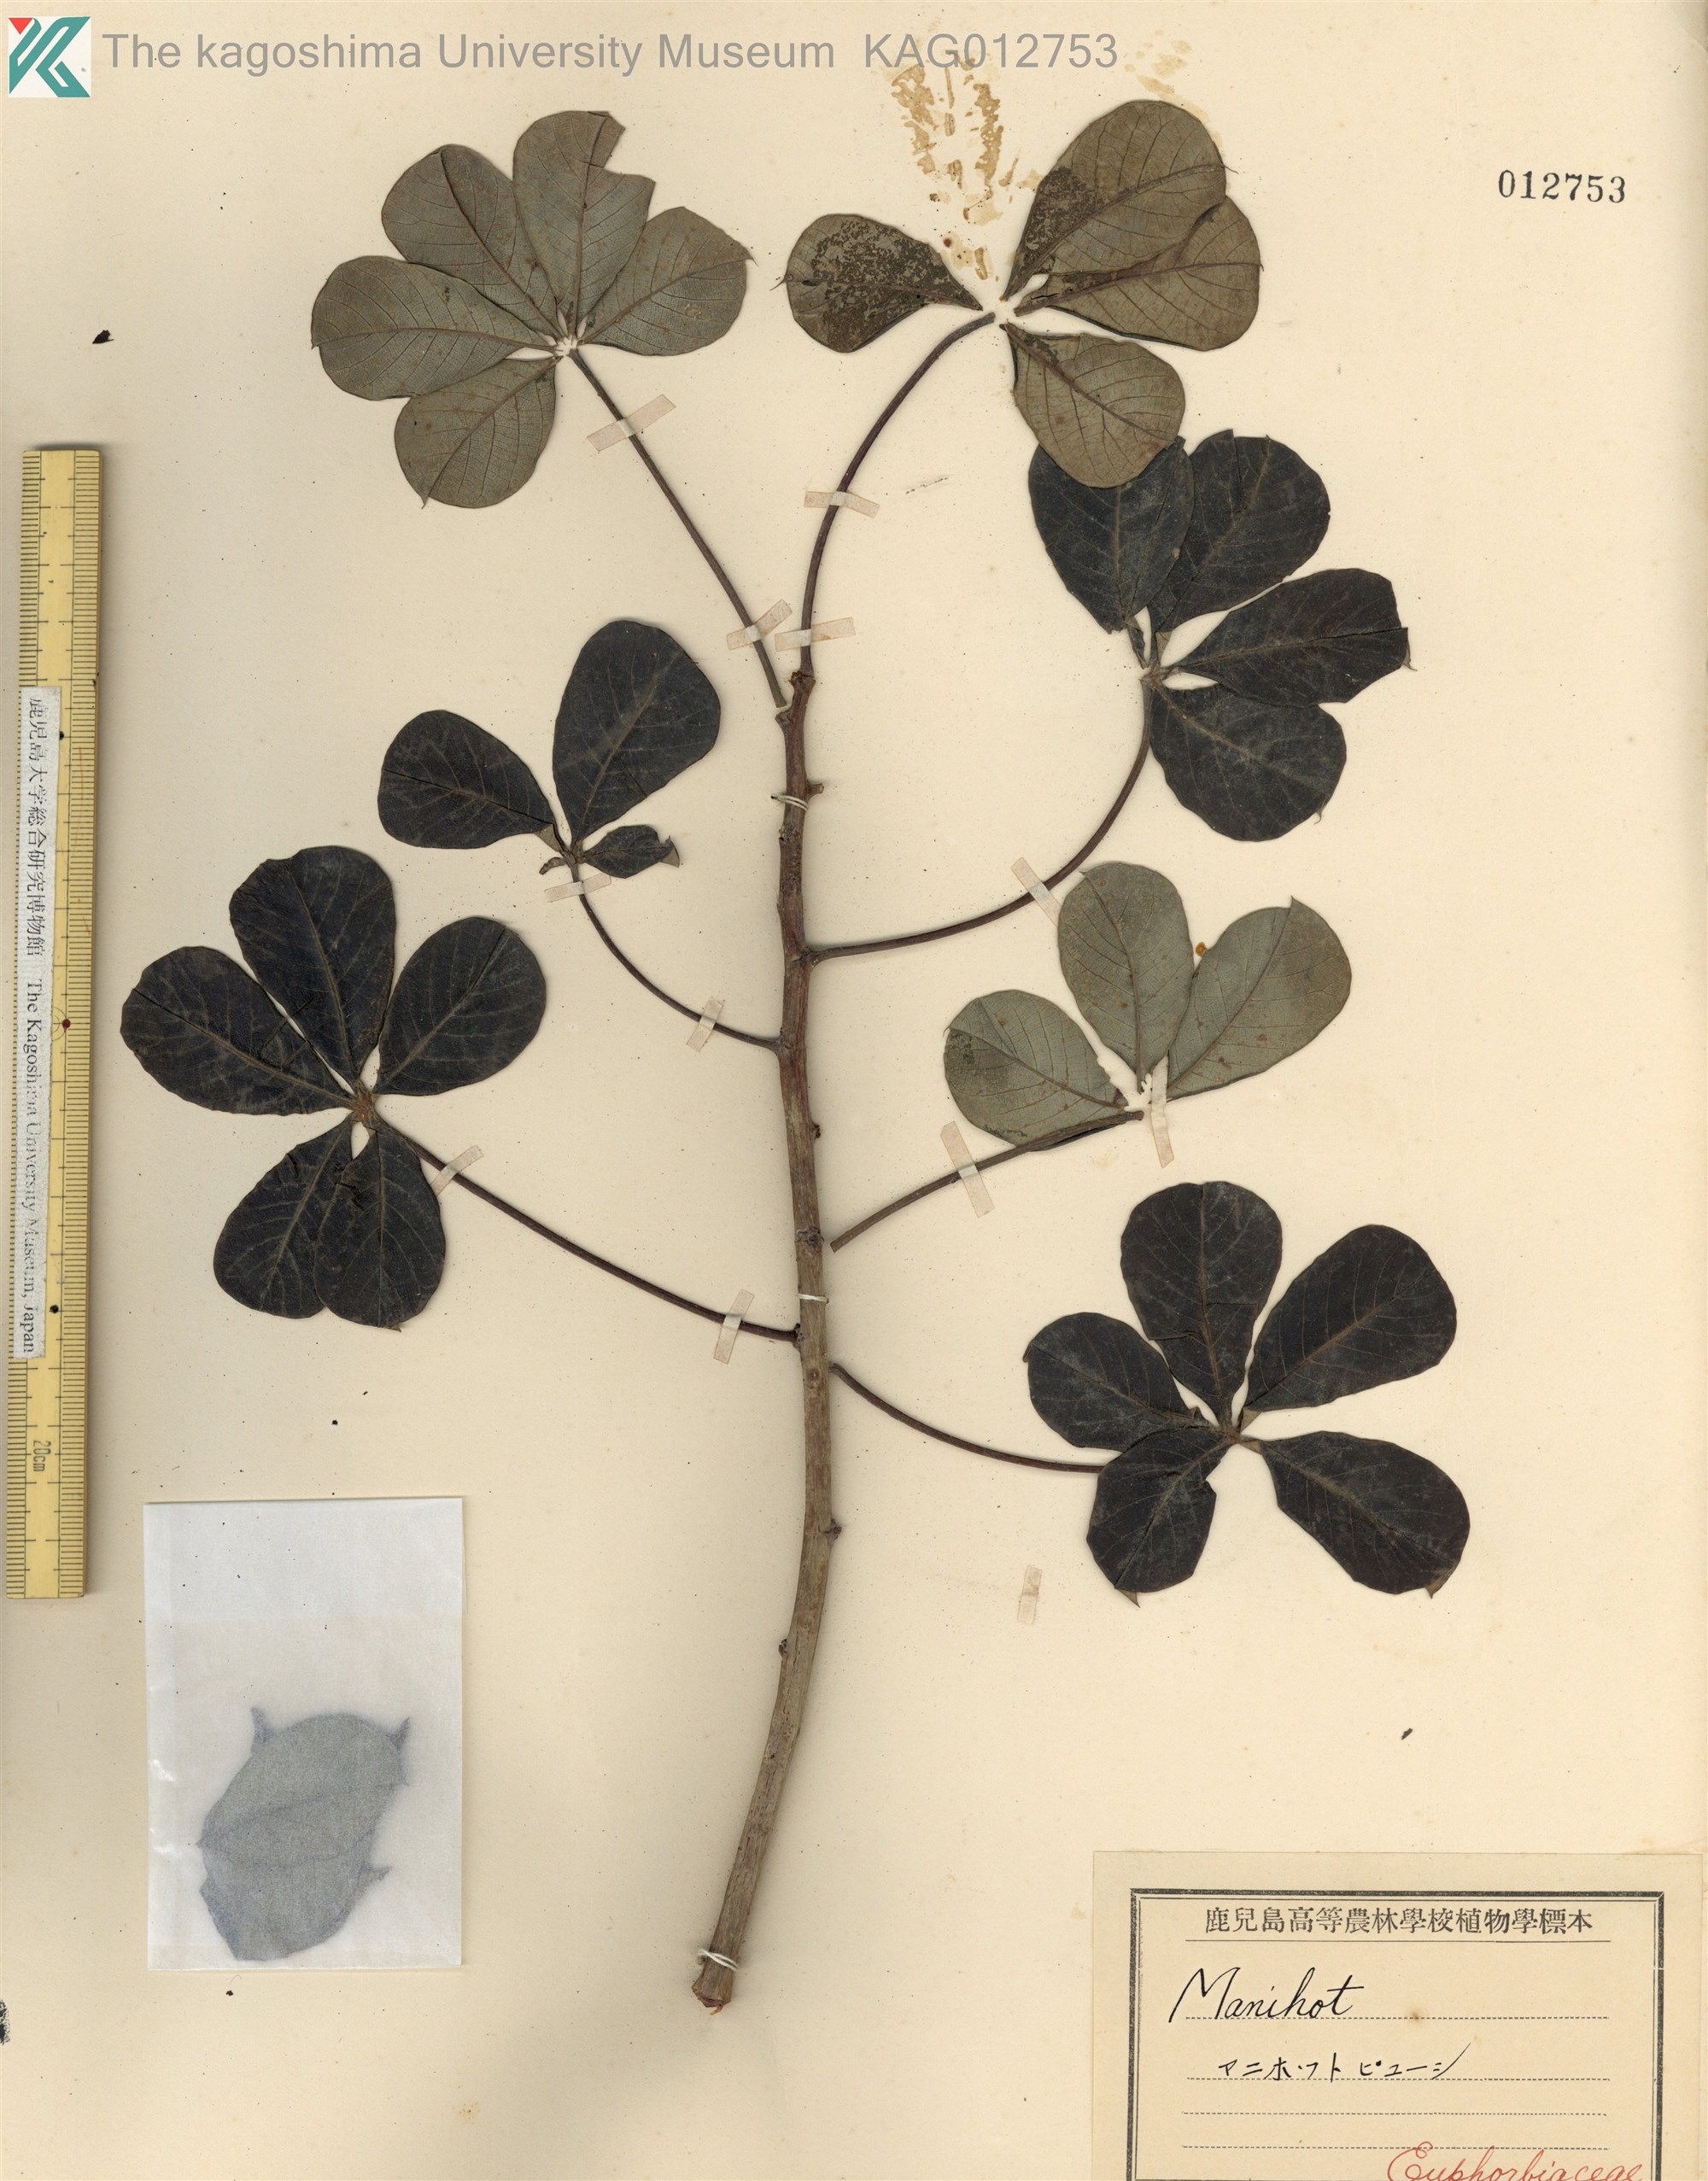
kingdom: Plantae
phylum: Tracheophyta
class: Magnoliopsida
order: Malpighiales
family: Euphorbiaceae
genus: Manihot
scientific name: Manihot caerulescens
